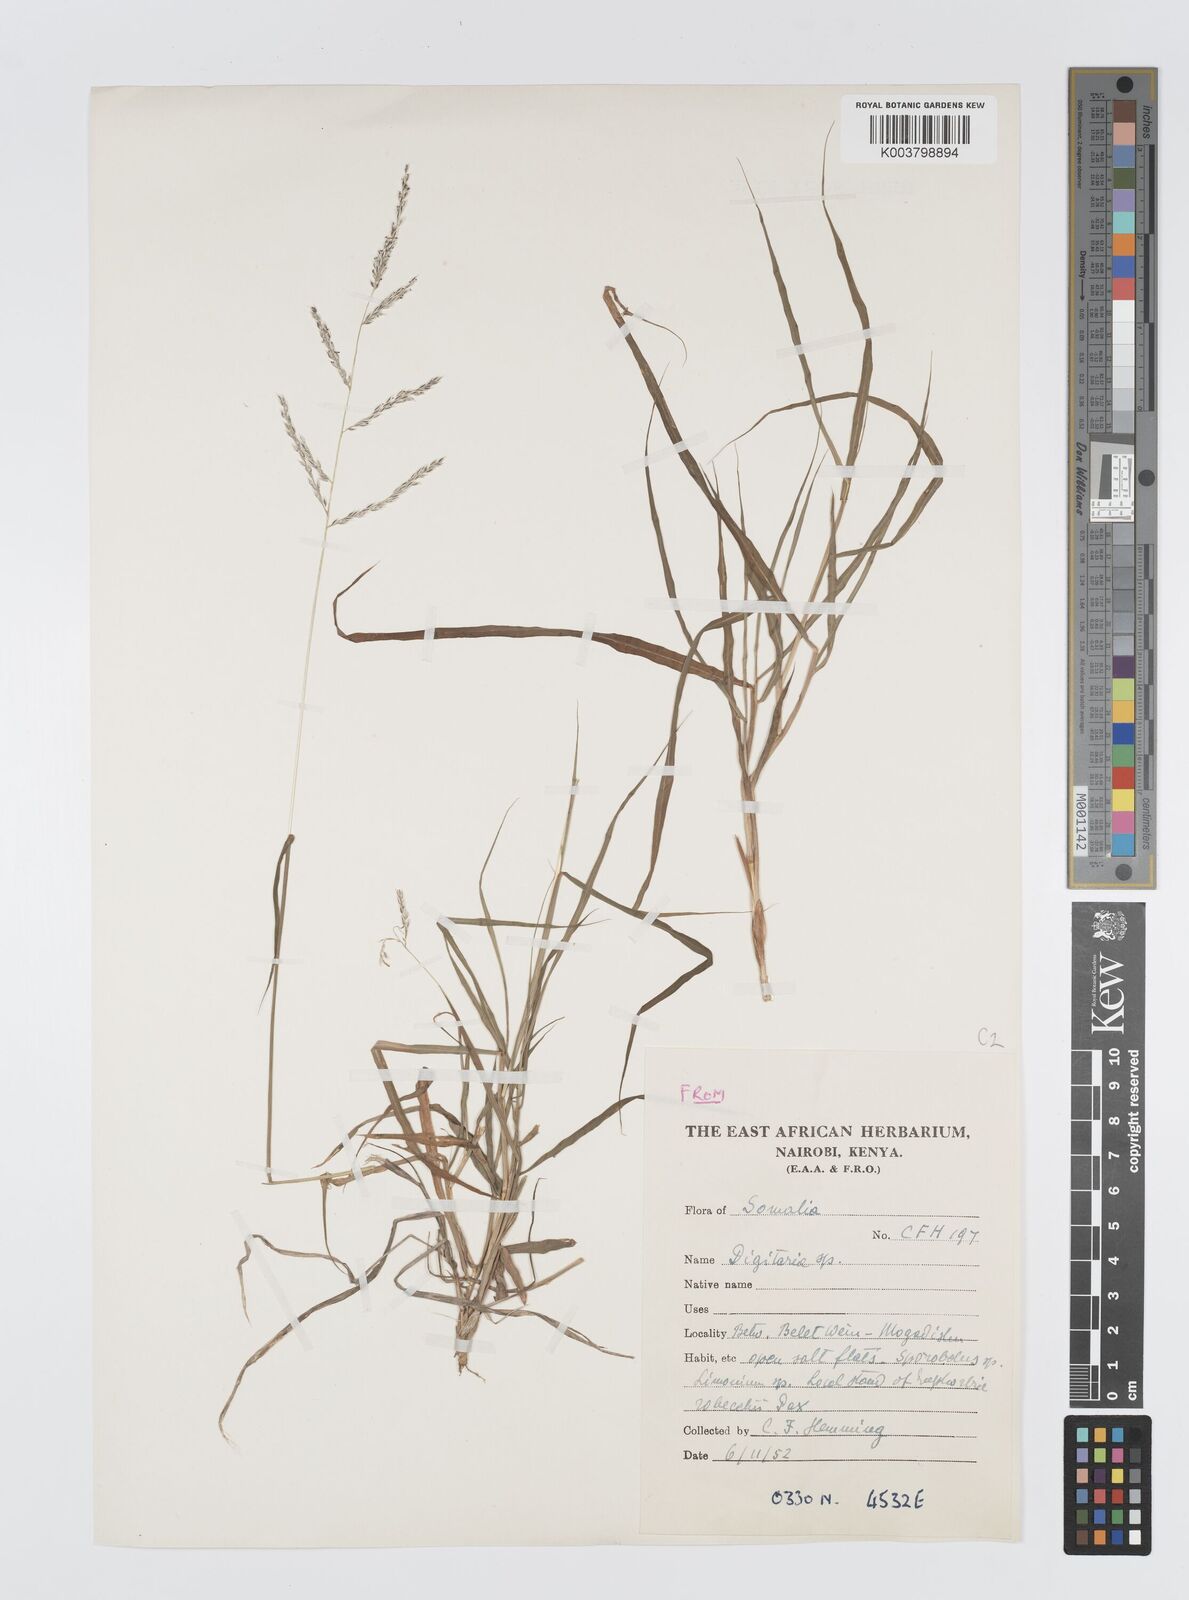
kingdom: Plantae
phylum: Tracheophyta
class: Liliopsida
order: Poales
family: Poaceae
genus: Digitaria
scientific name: Digitaria rivae
